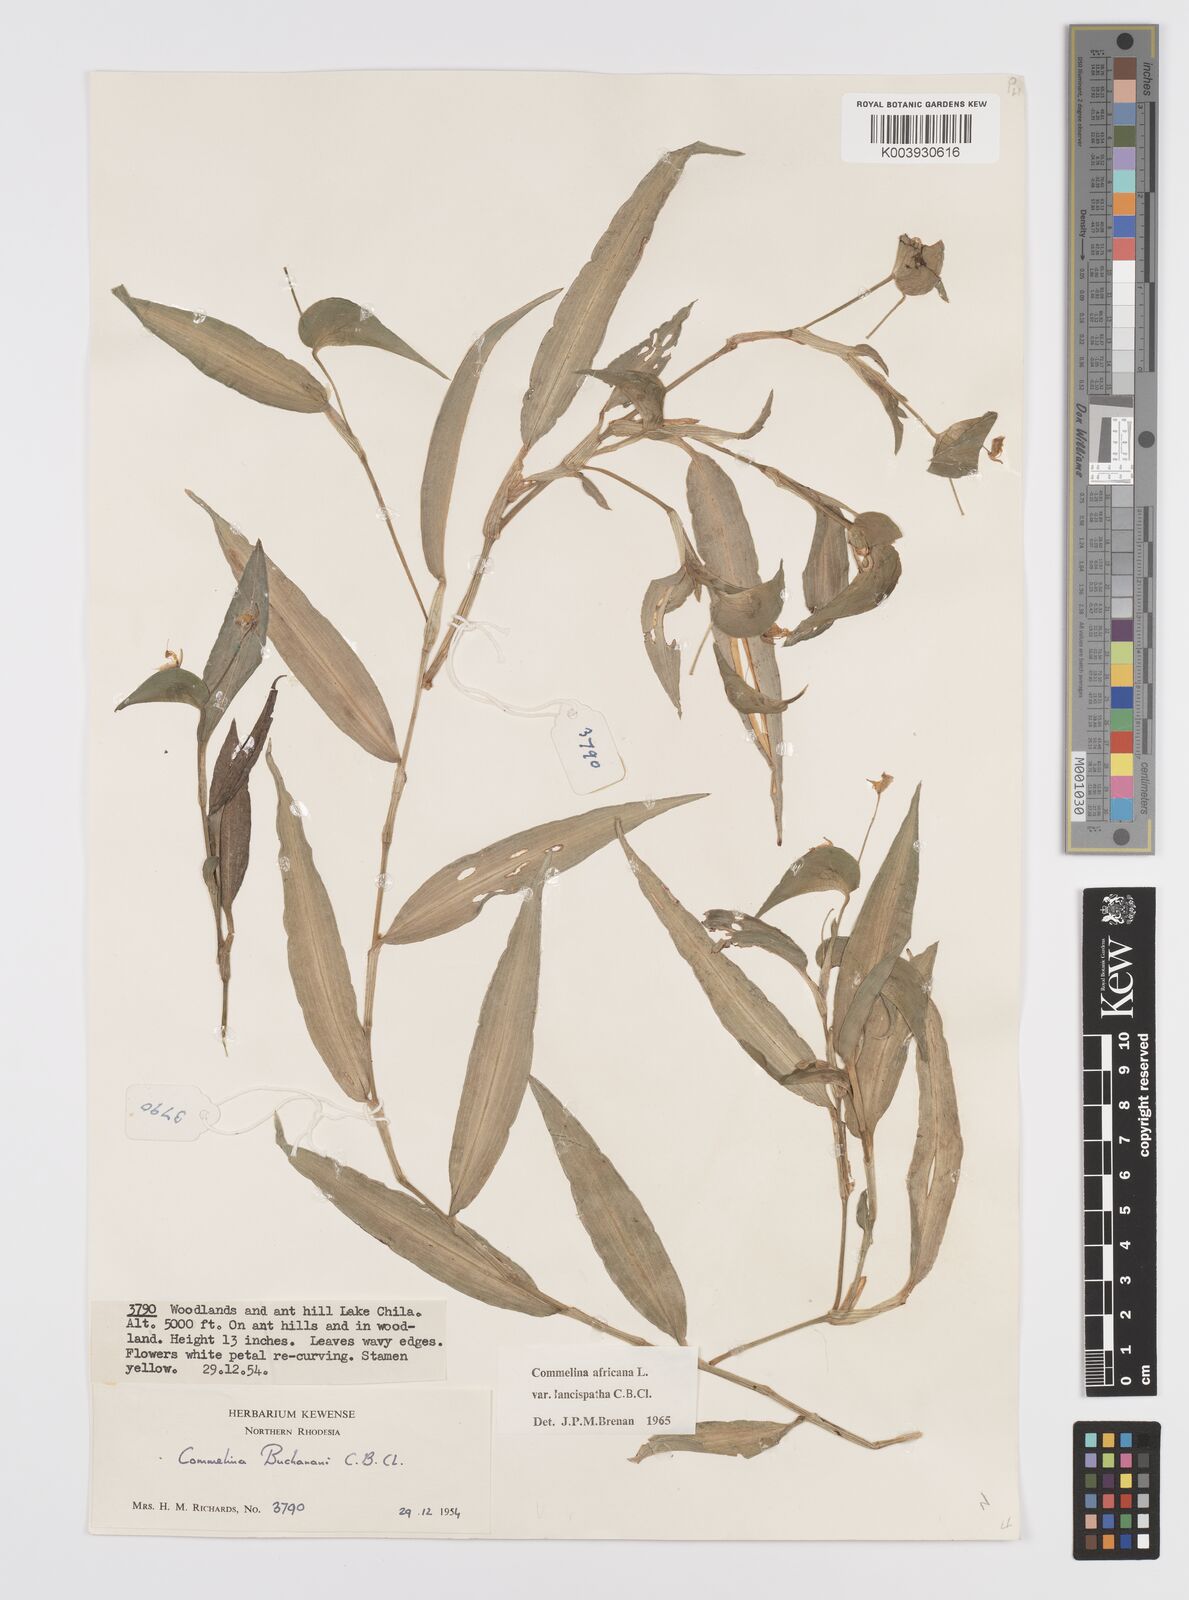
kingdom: Plantae
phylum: Tracheophyta
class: Liliopsida
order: Commelinales
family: Commelinaceae
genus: Commelina
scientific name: Commelina africana
